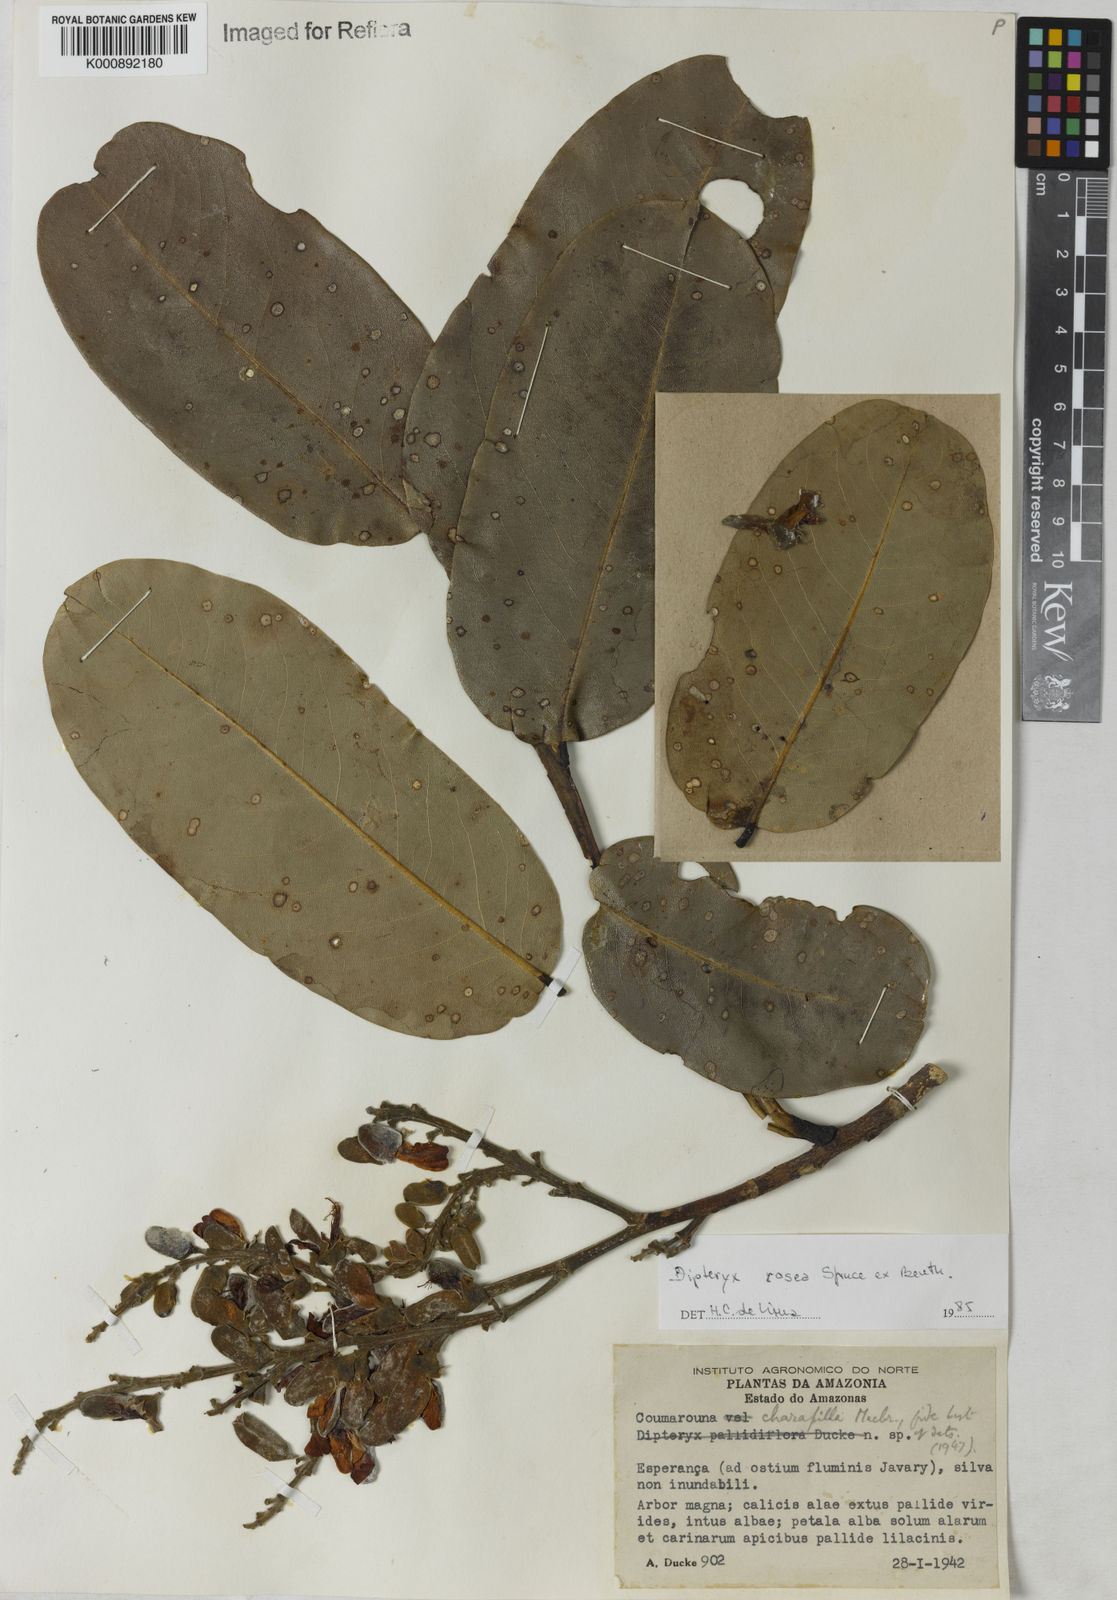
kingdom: Plantae
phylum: Tracheophyta
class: Magnoliopsida
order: Fabales
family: Fabaceae
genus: Dipteryx
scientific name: Dipteryx rosea
